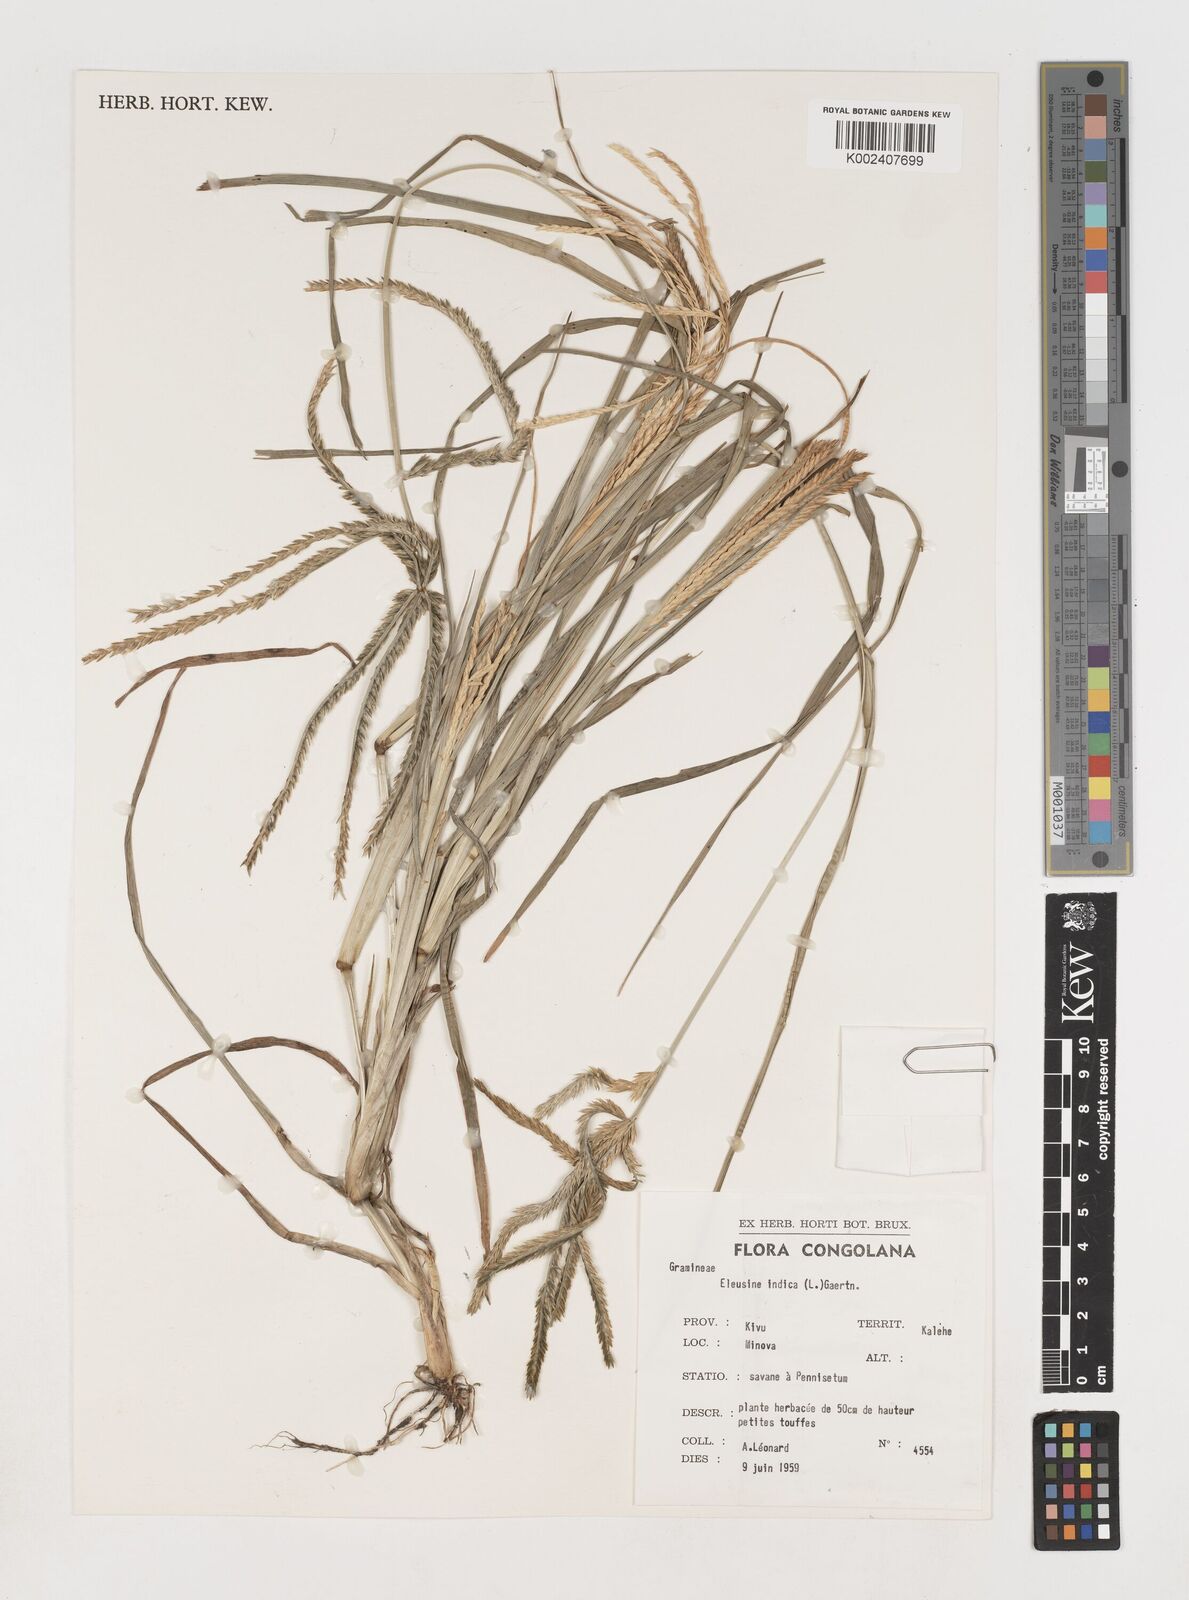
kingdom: Plantae
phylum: Tracheophyta
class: Liliopsida
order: Poales
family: Poaceae
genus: Eleusine
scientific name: Eleusine indica
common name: Yard-grass
